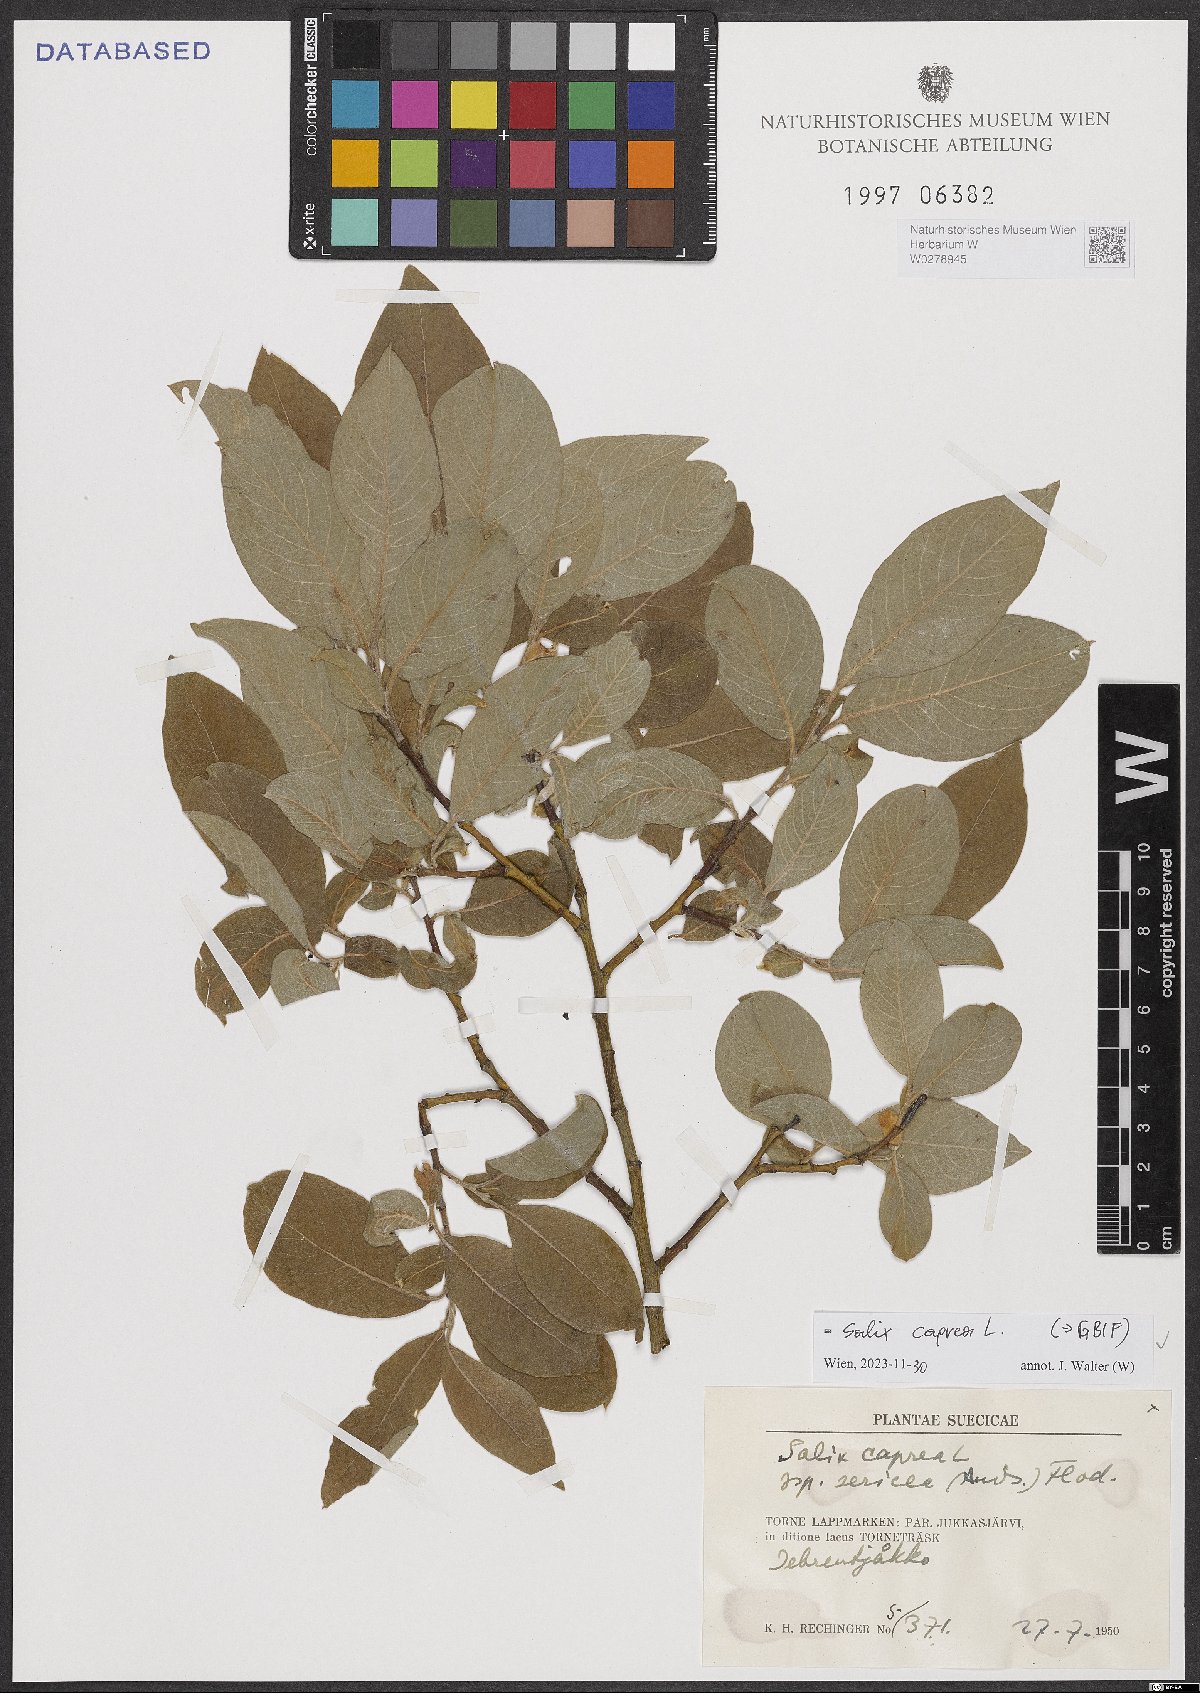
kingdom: Plantae
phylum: Tracheophyta
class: Magnoliopsida
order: Malpighiales
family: Salicaceae
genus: Salix
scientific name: Salix caprea
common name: Goat willow
